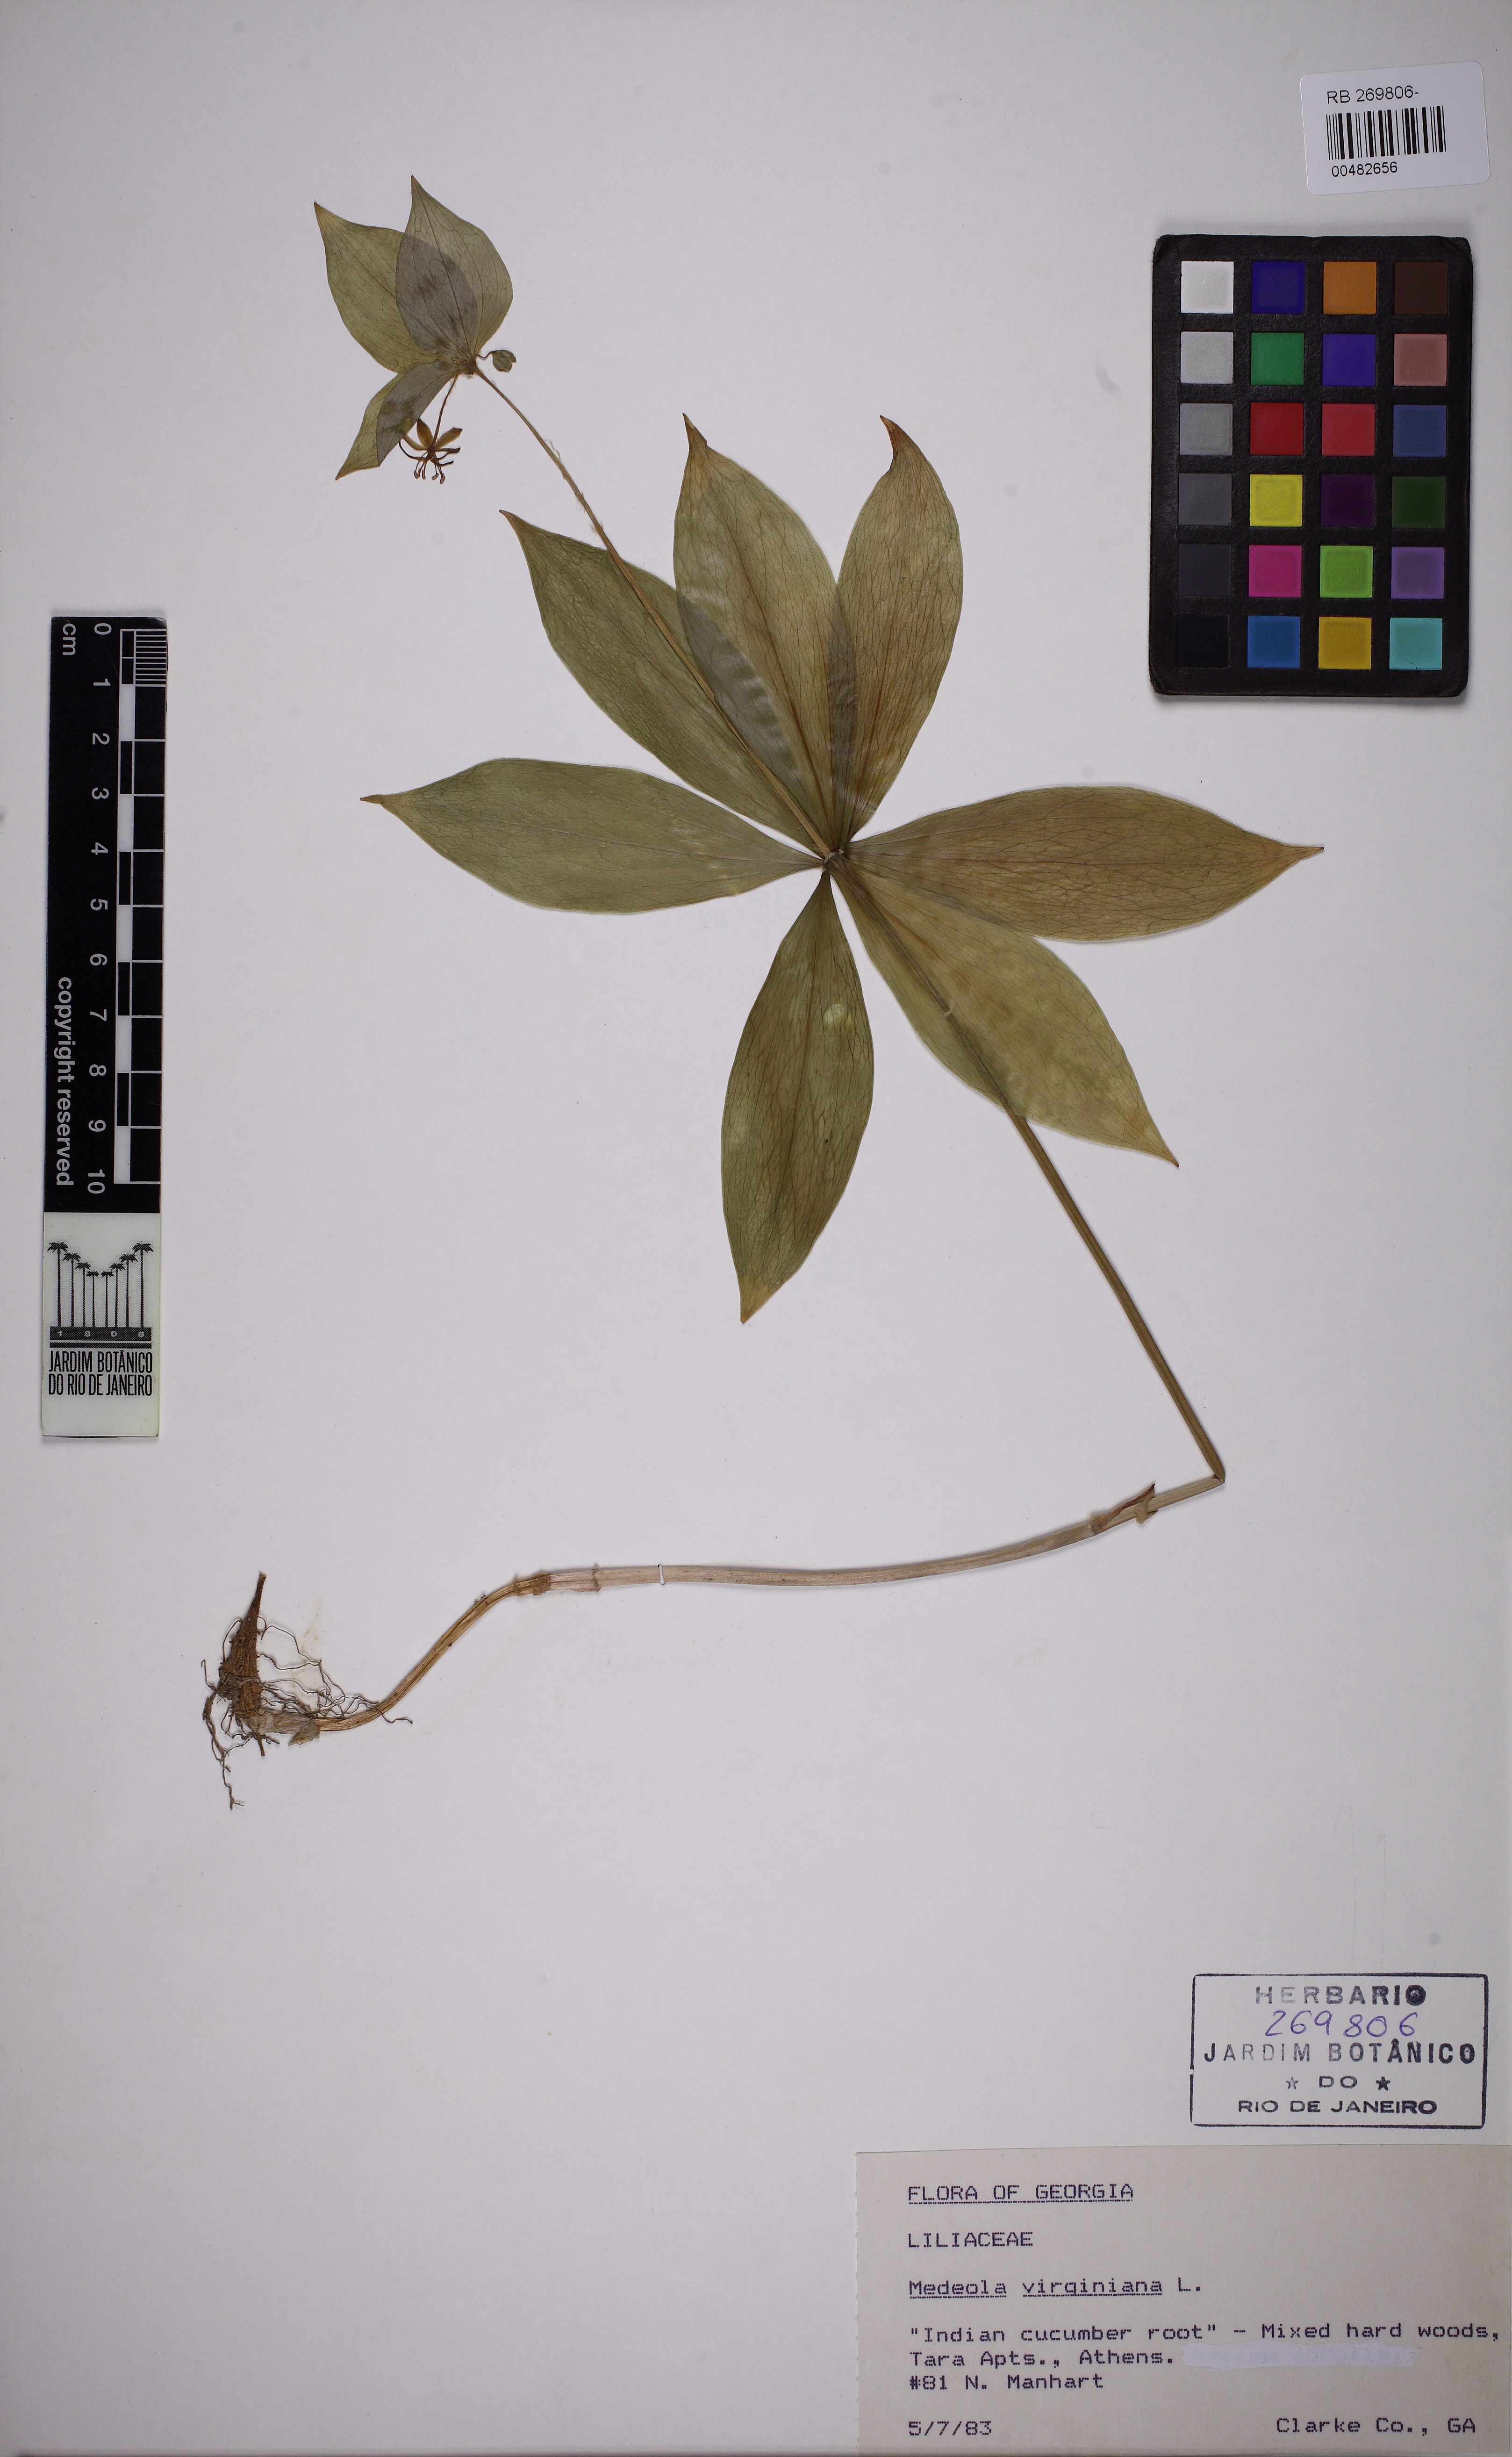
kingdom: Plantae
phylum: Tracheophyta
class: Liliopsida
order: Liliales
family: Liliaceae
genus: Medeola
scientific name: Medeola virginiana
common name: Indian cucumber-root
